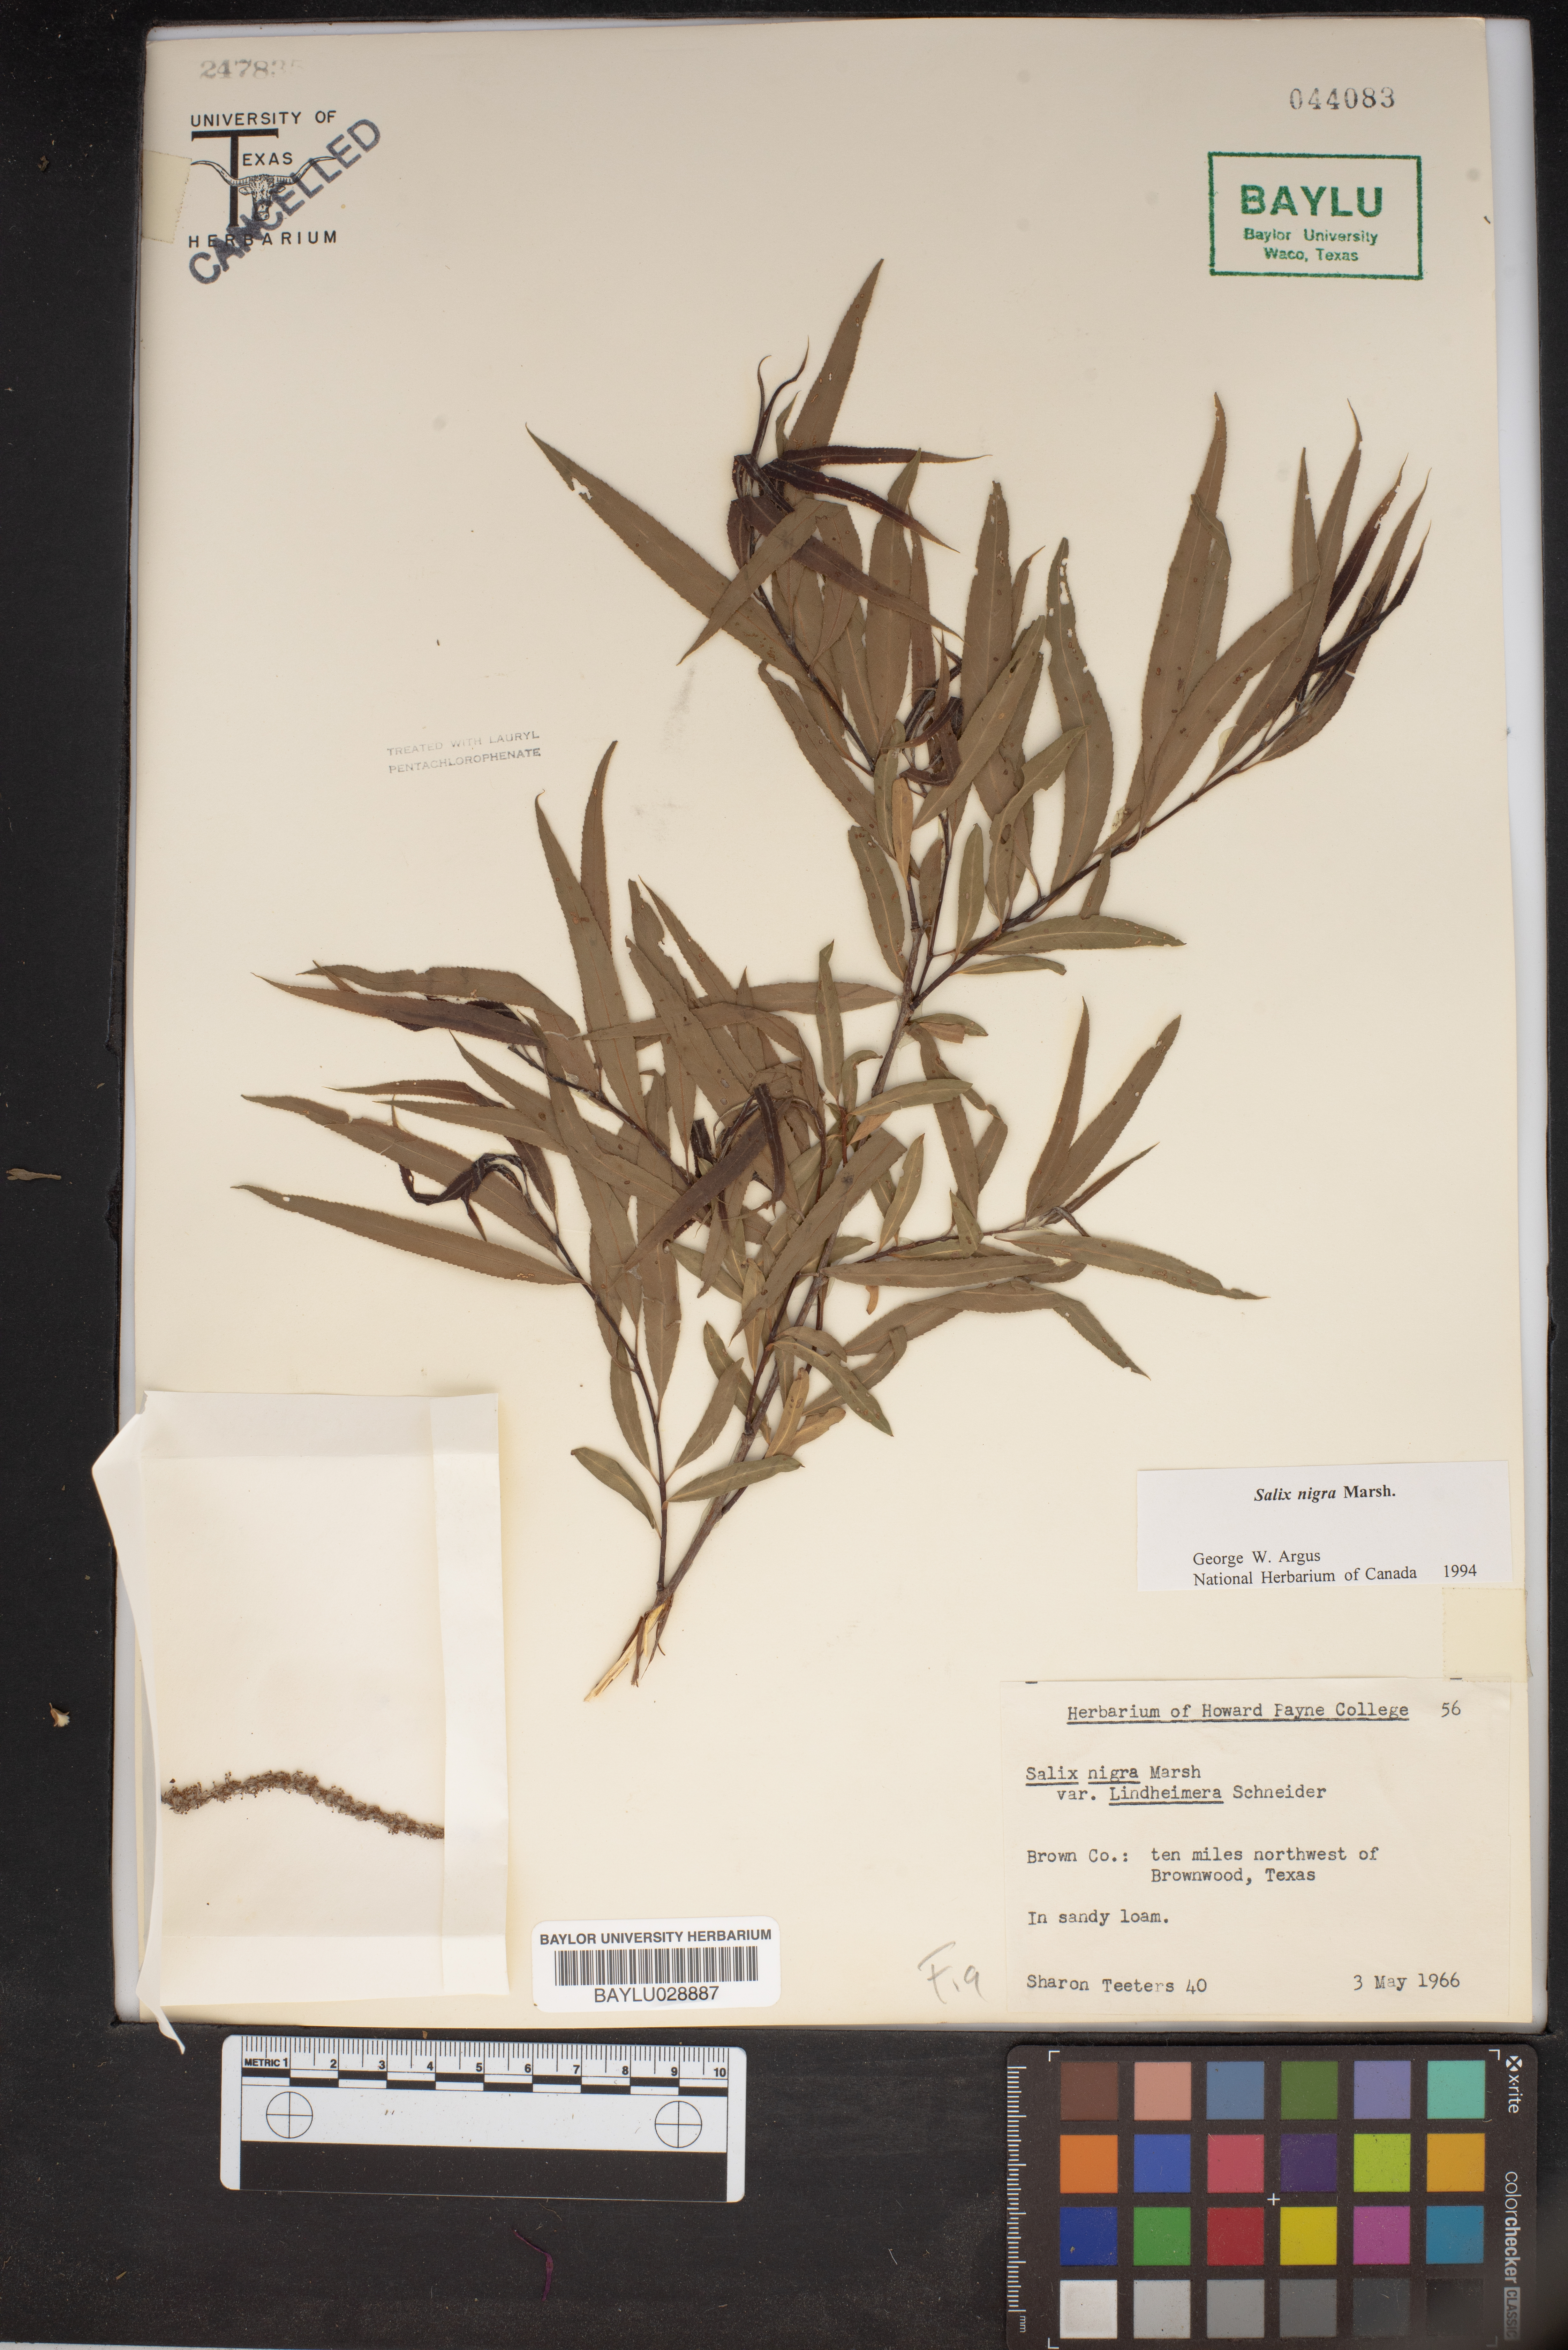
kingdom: Plantae
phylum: Tracheophyta
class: Magnoliopsida
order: Malpighiales
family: Salicaceae
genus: Salix
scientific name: Salix nigra
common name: Black willow
